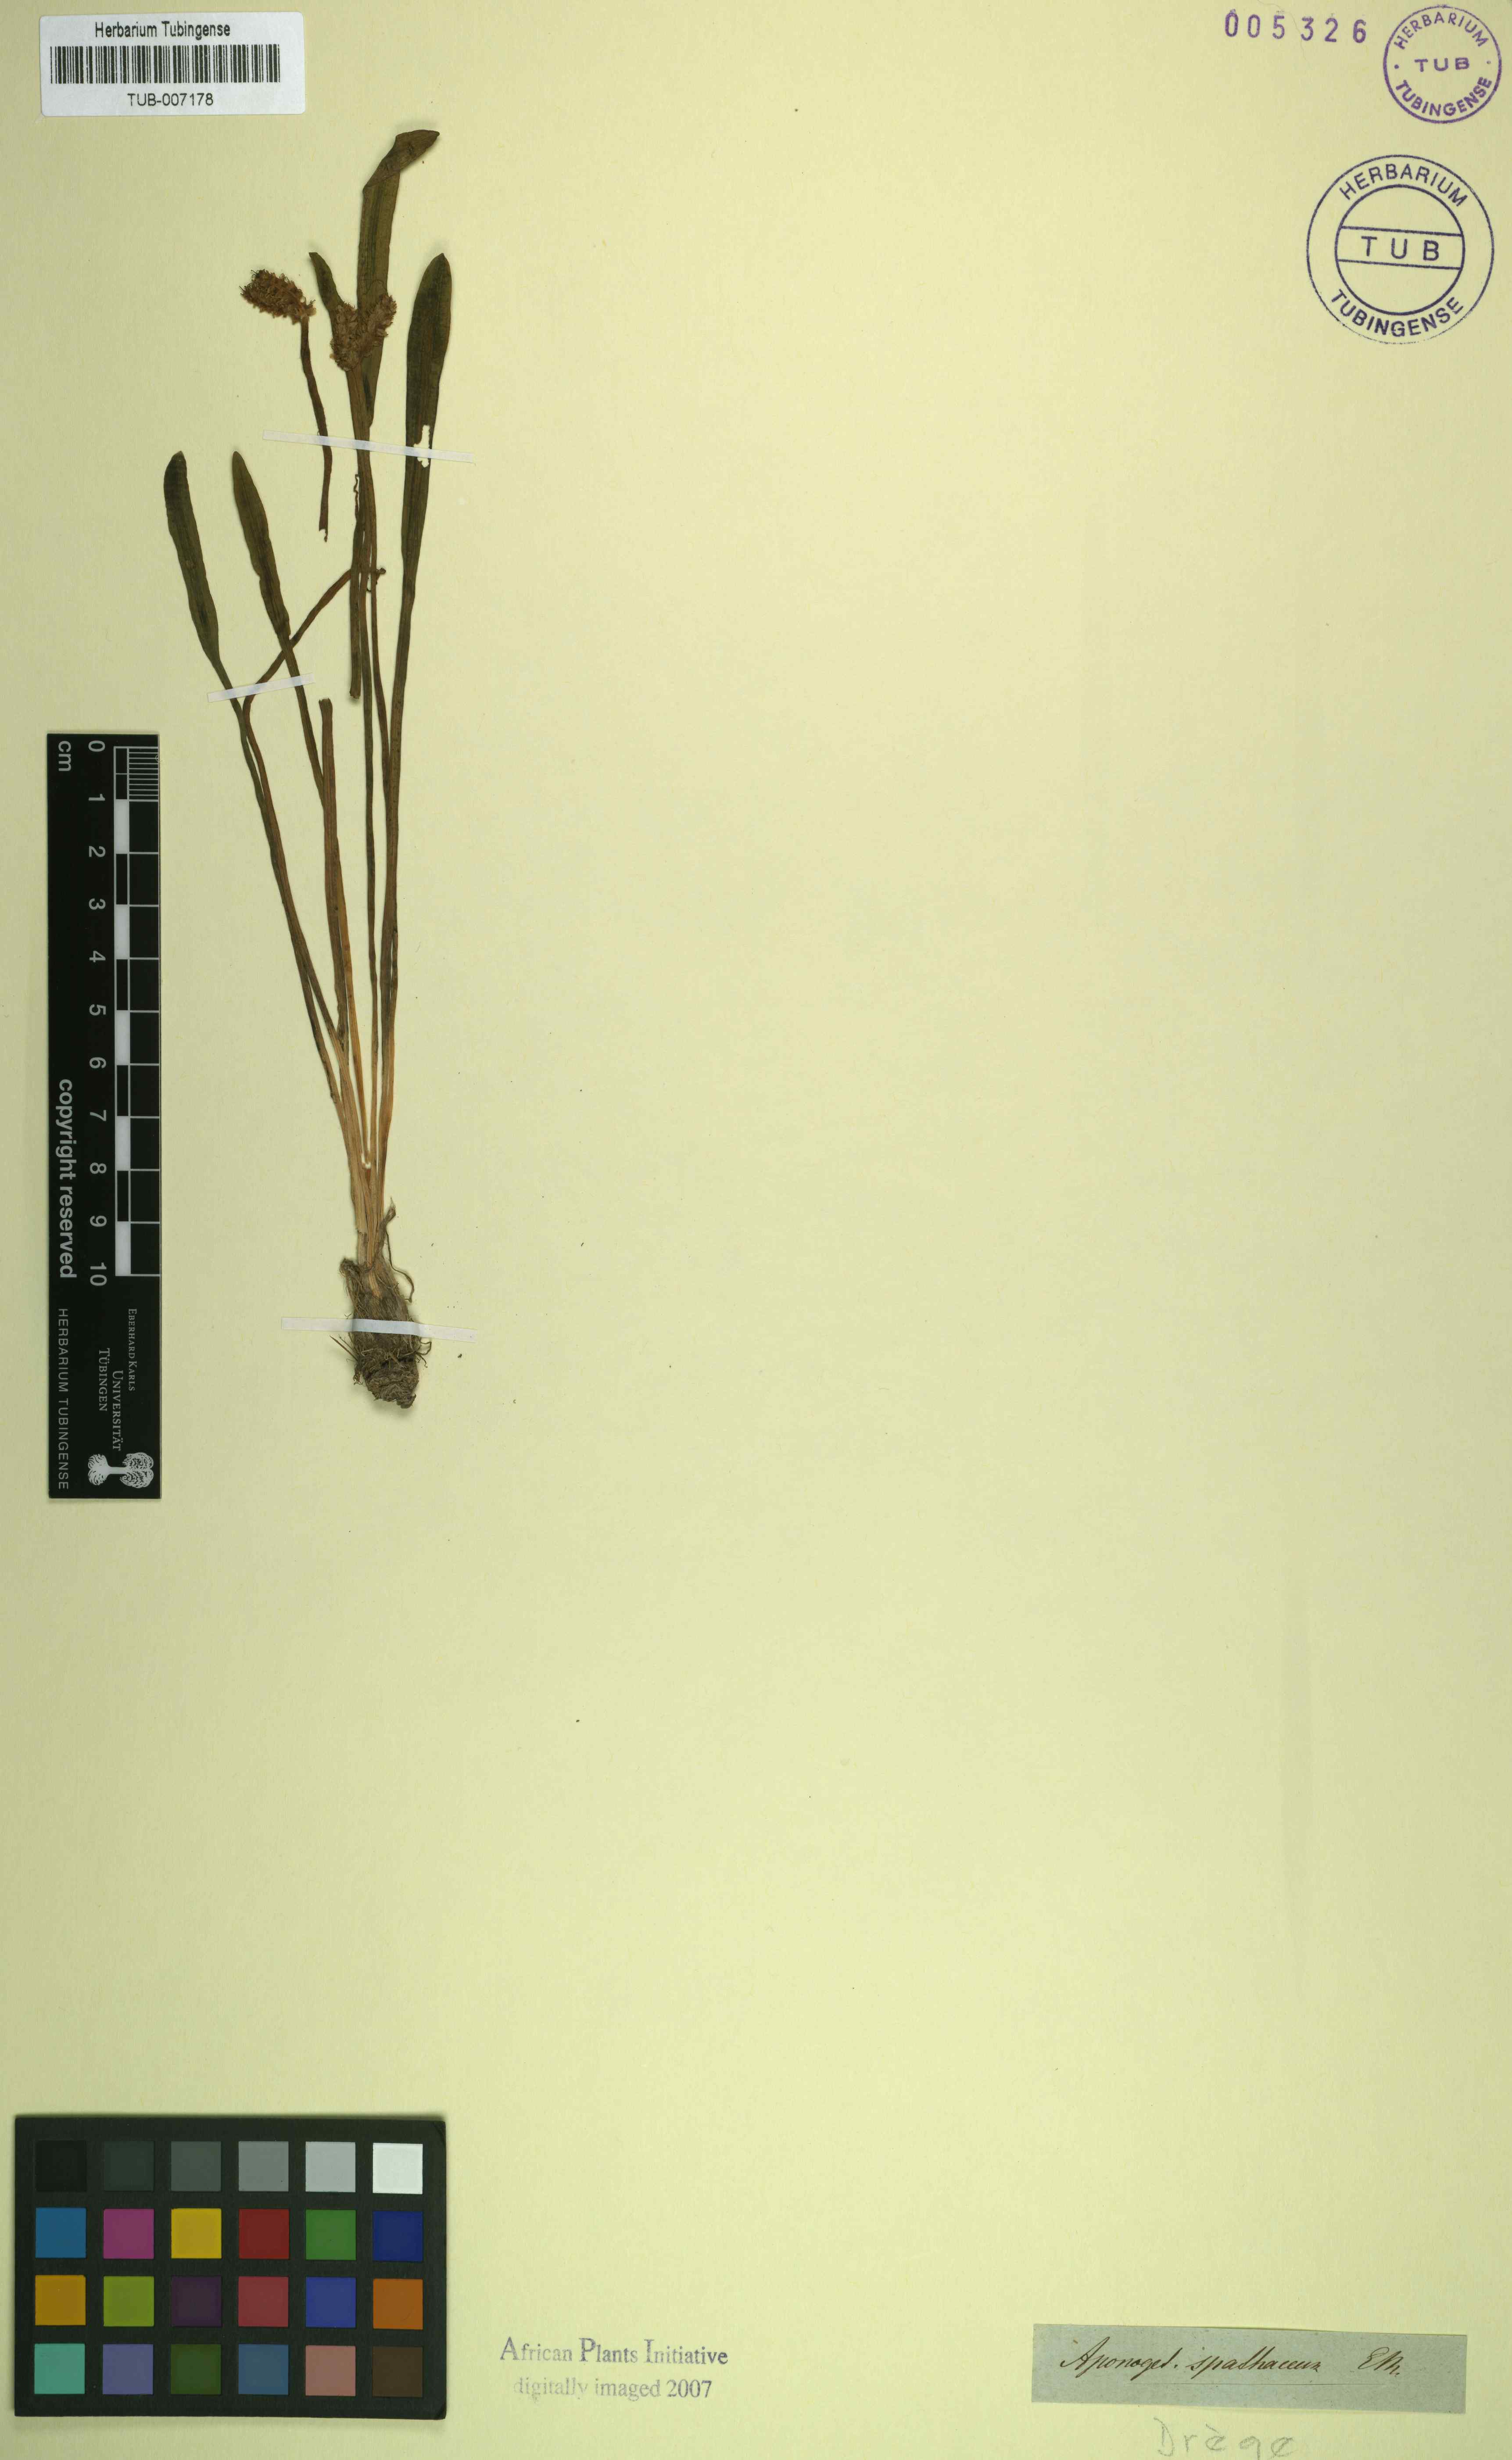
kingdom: Plantae
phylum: Tracheophyta
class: Liliopsida
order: Alismatales
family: Aponogetonaceae
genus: Aponogeton
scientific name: Aponogeton spathaceum
